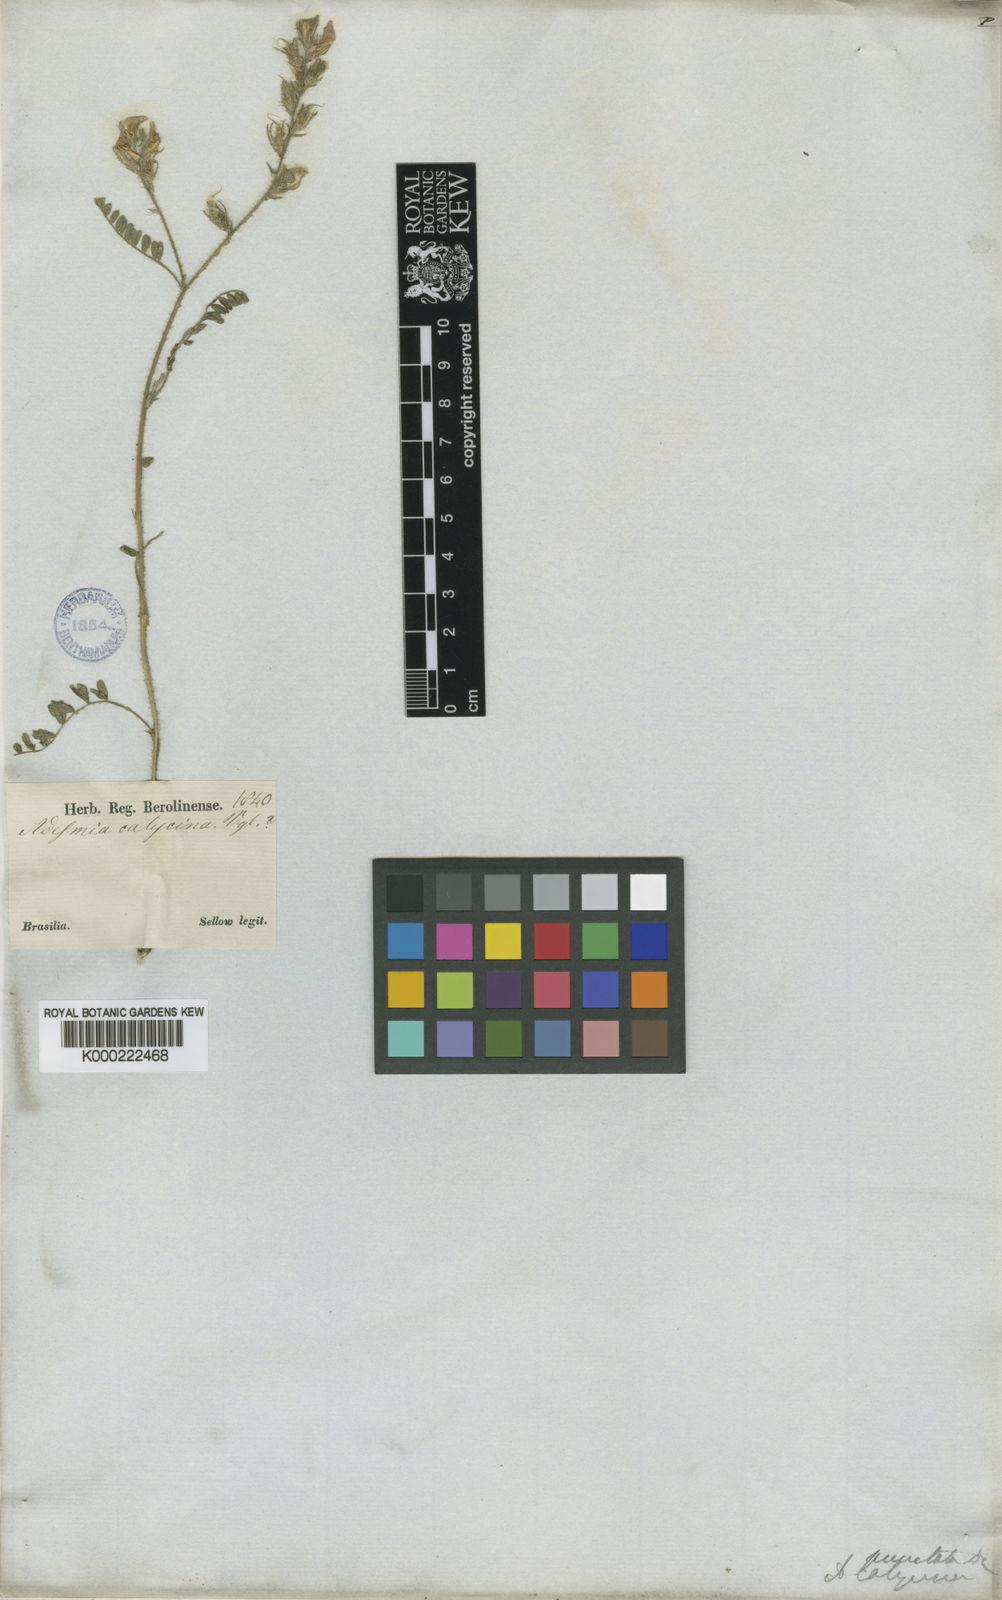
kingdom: Plantae
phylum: Tracheophyta
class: Magnoliopsida
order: Fabales
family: Fabaceae
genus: Adesmia
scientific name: Adesmia punctata
